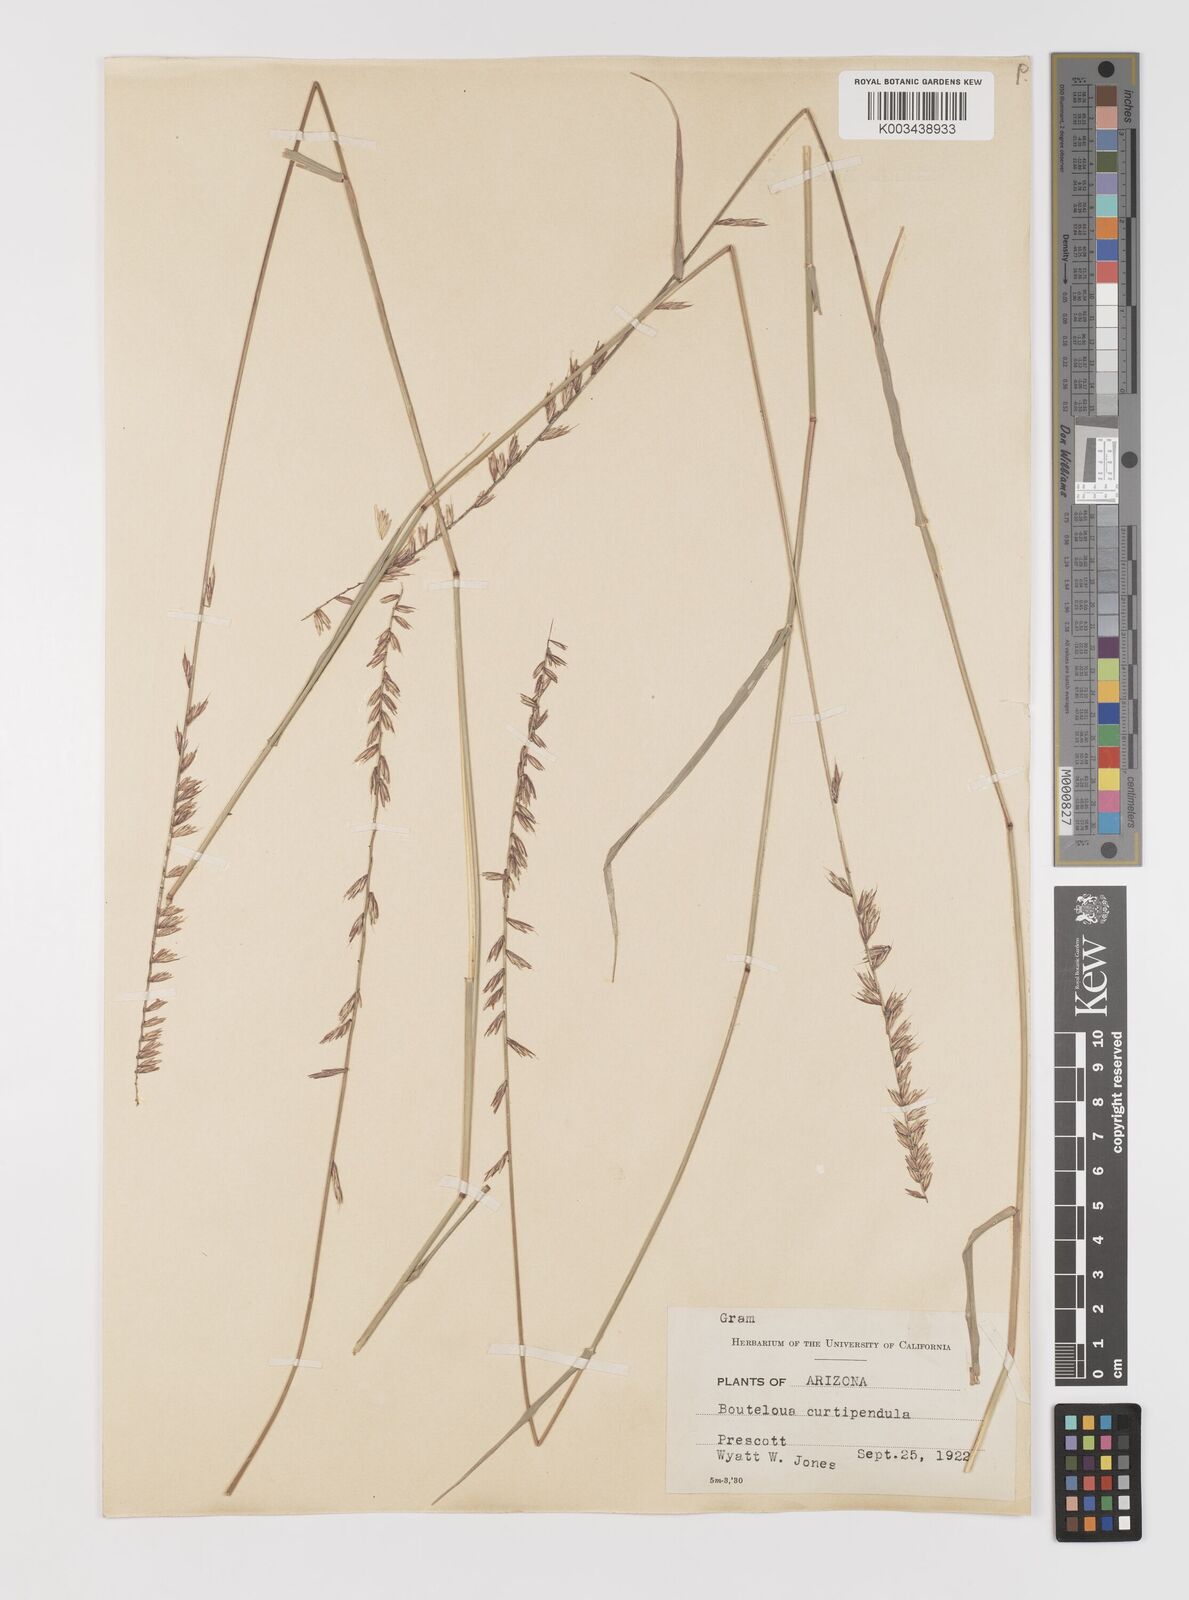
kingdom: Plantae
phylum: Tracheophyta
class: Liliopsida
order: Poales
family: Poaceae
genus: Bouteloua
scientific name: Bouteloua curtipendula
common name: Side-oats grama
